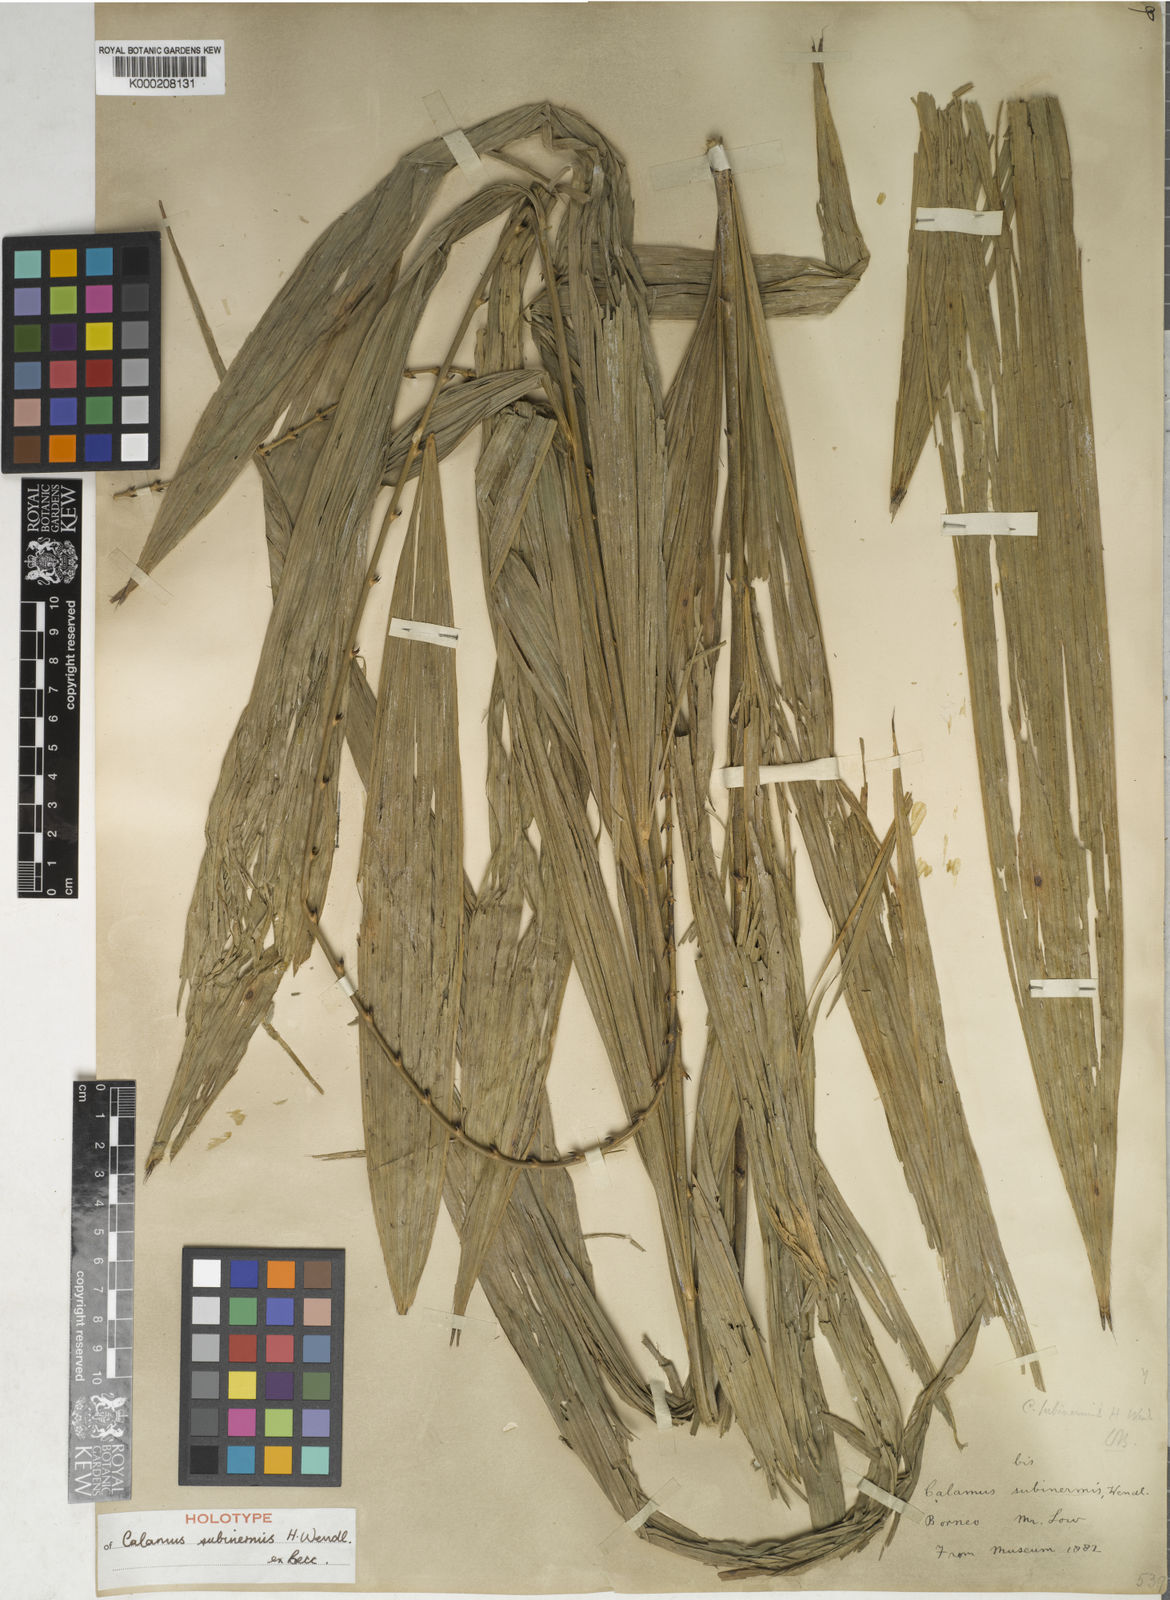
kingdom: Plantae
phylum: Tracheophyta
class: Liliopsida
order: Arecales
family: Arecaceae
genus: Calamus
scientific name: Calamus moseleyanus
